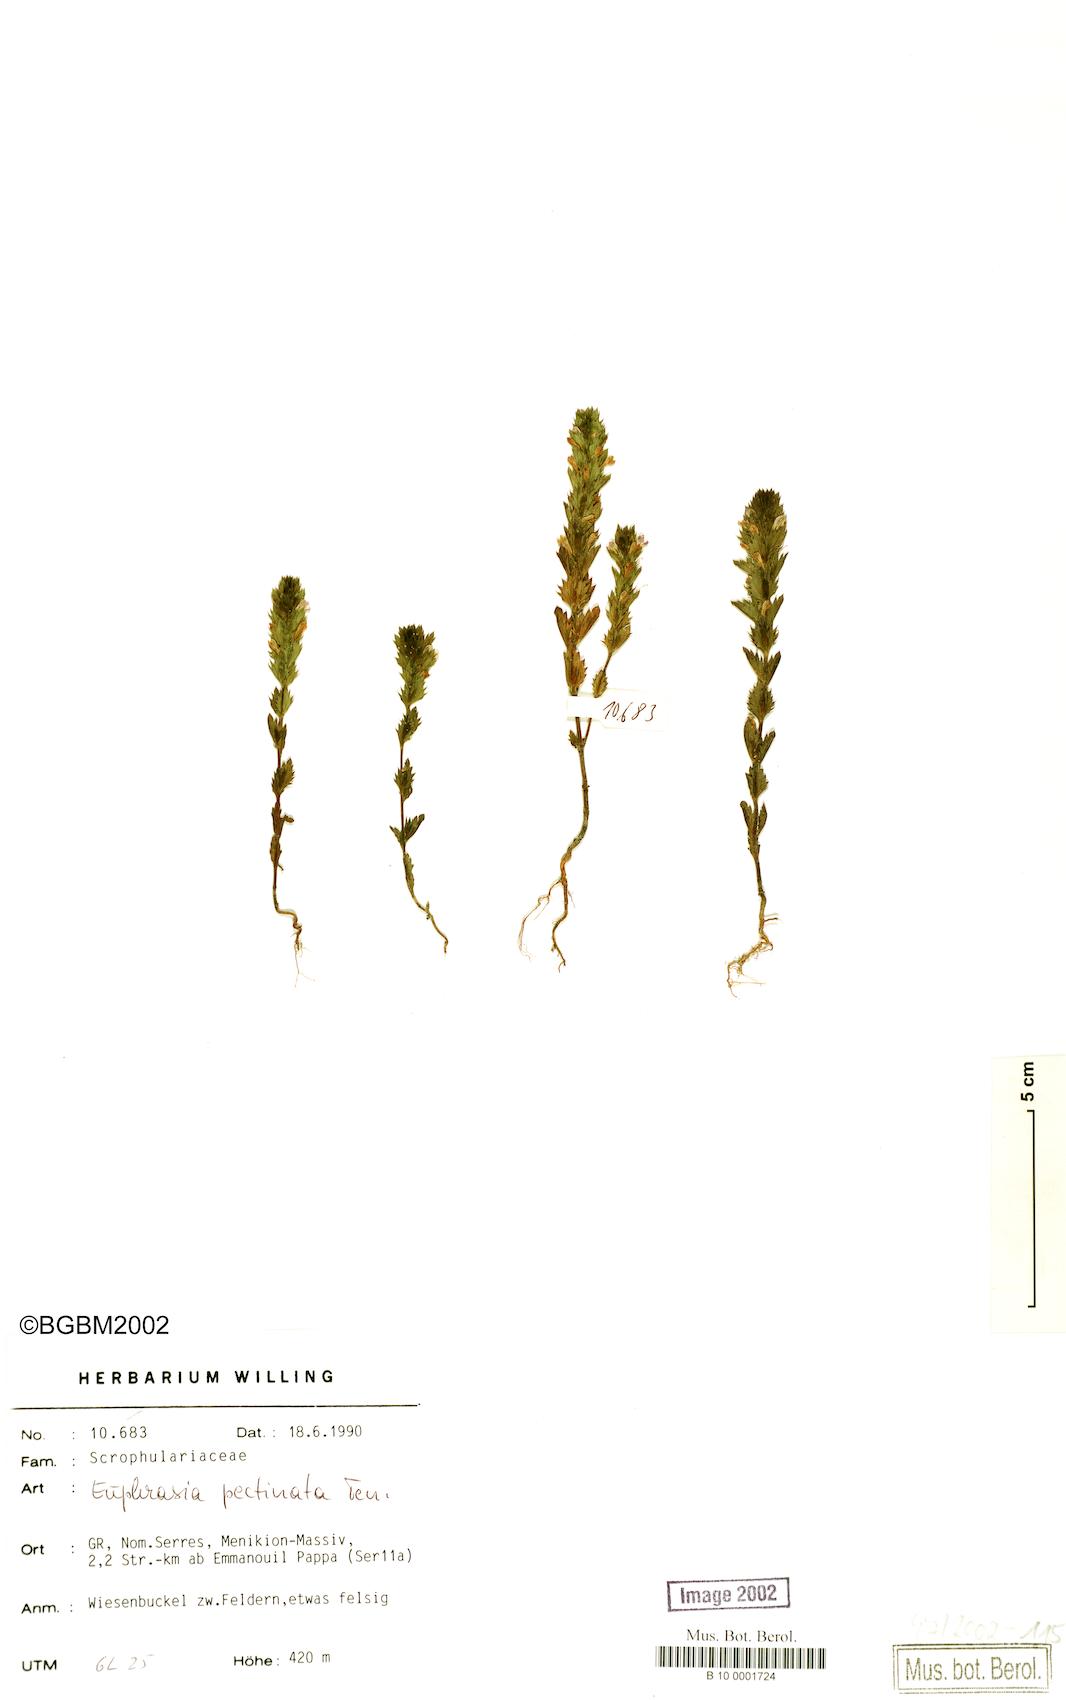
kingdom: Plantae
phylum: Tracheophyta
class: Magnoliopsida
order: Lamiales
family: Orobanchaceae
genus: Euphrasia
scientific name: Euphrasia pectinata
